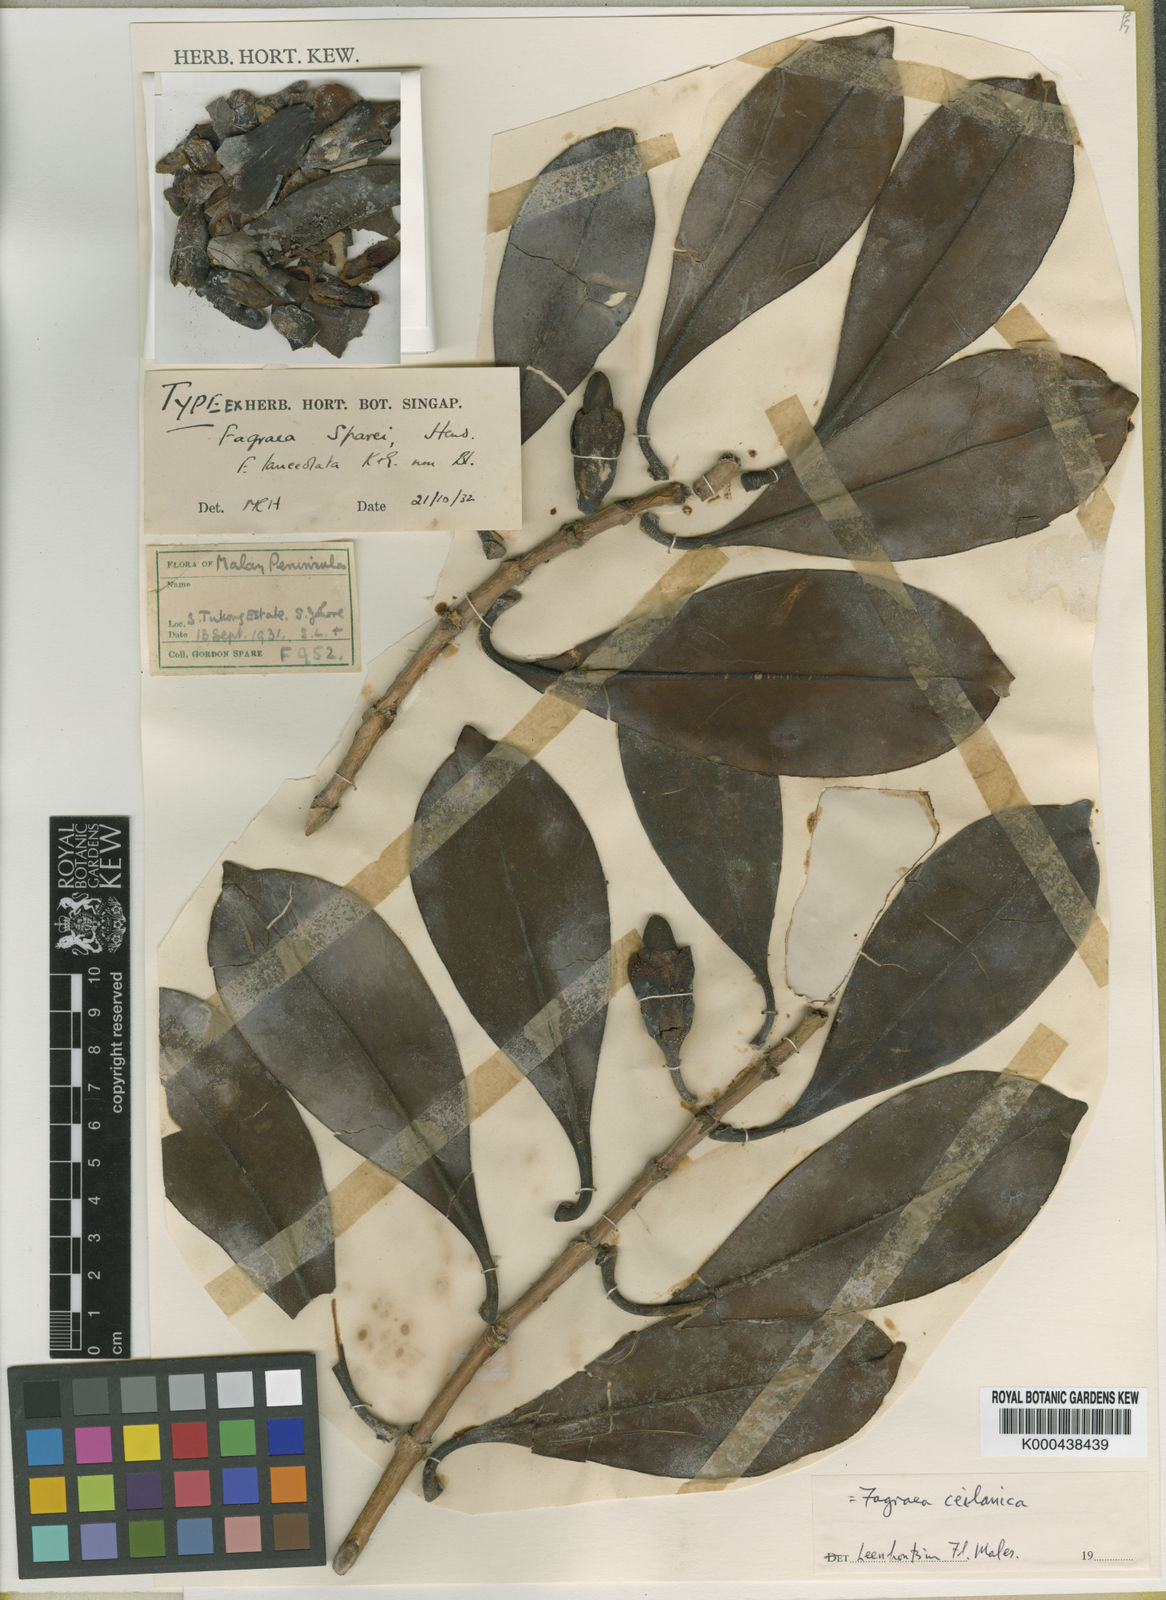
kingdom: Plantae
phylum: Tracheophyta
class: Magnoliopsida
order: Gentianales
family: Gentianaceae
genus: Fagraea
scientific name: Fagraea crassifolia
